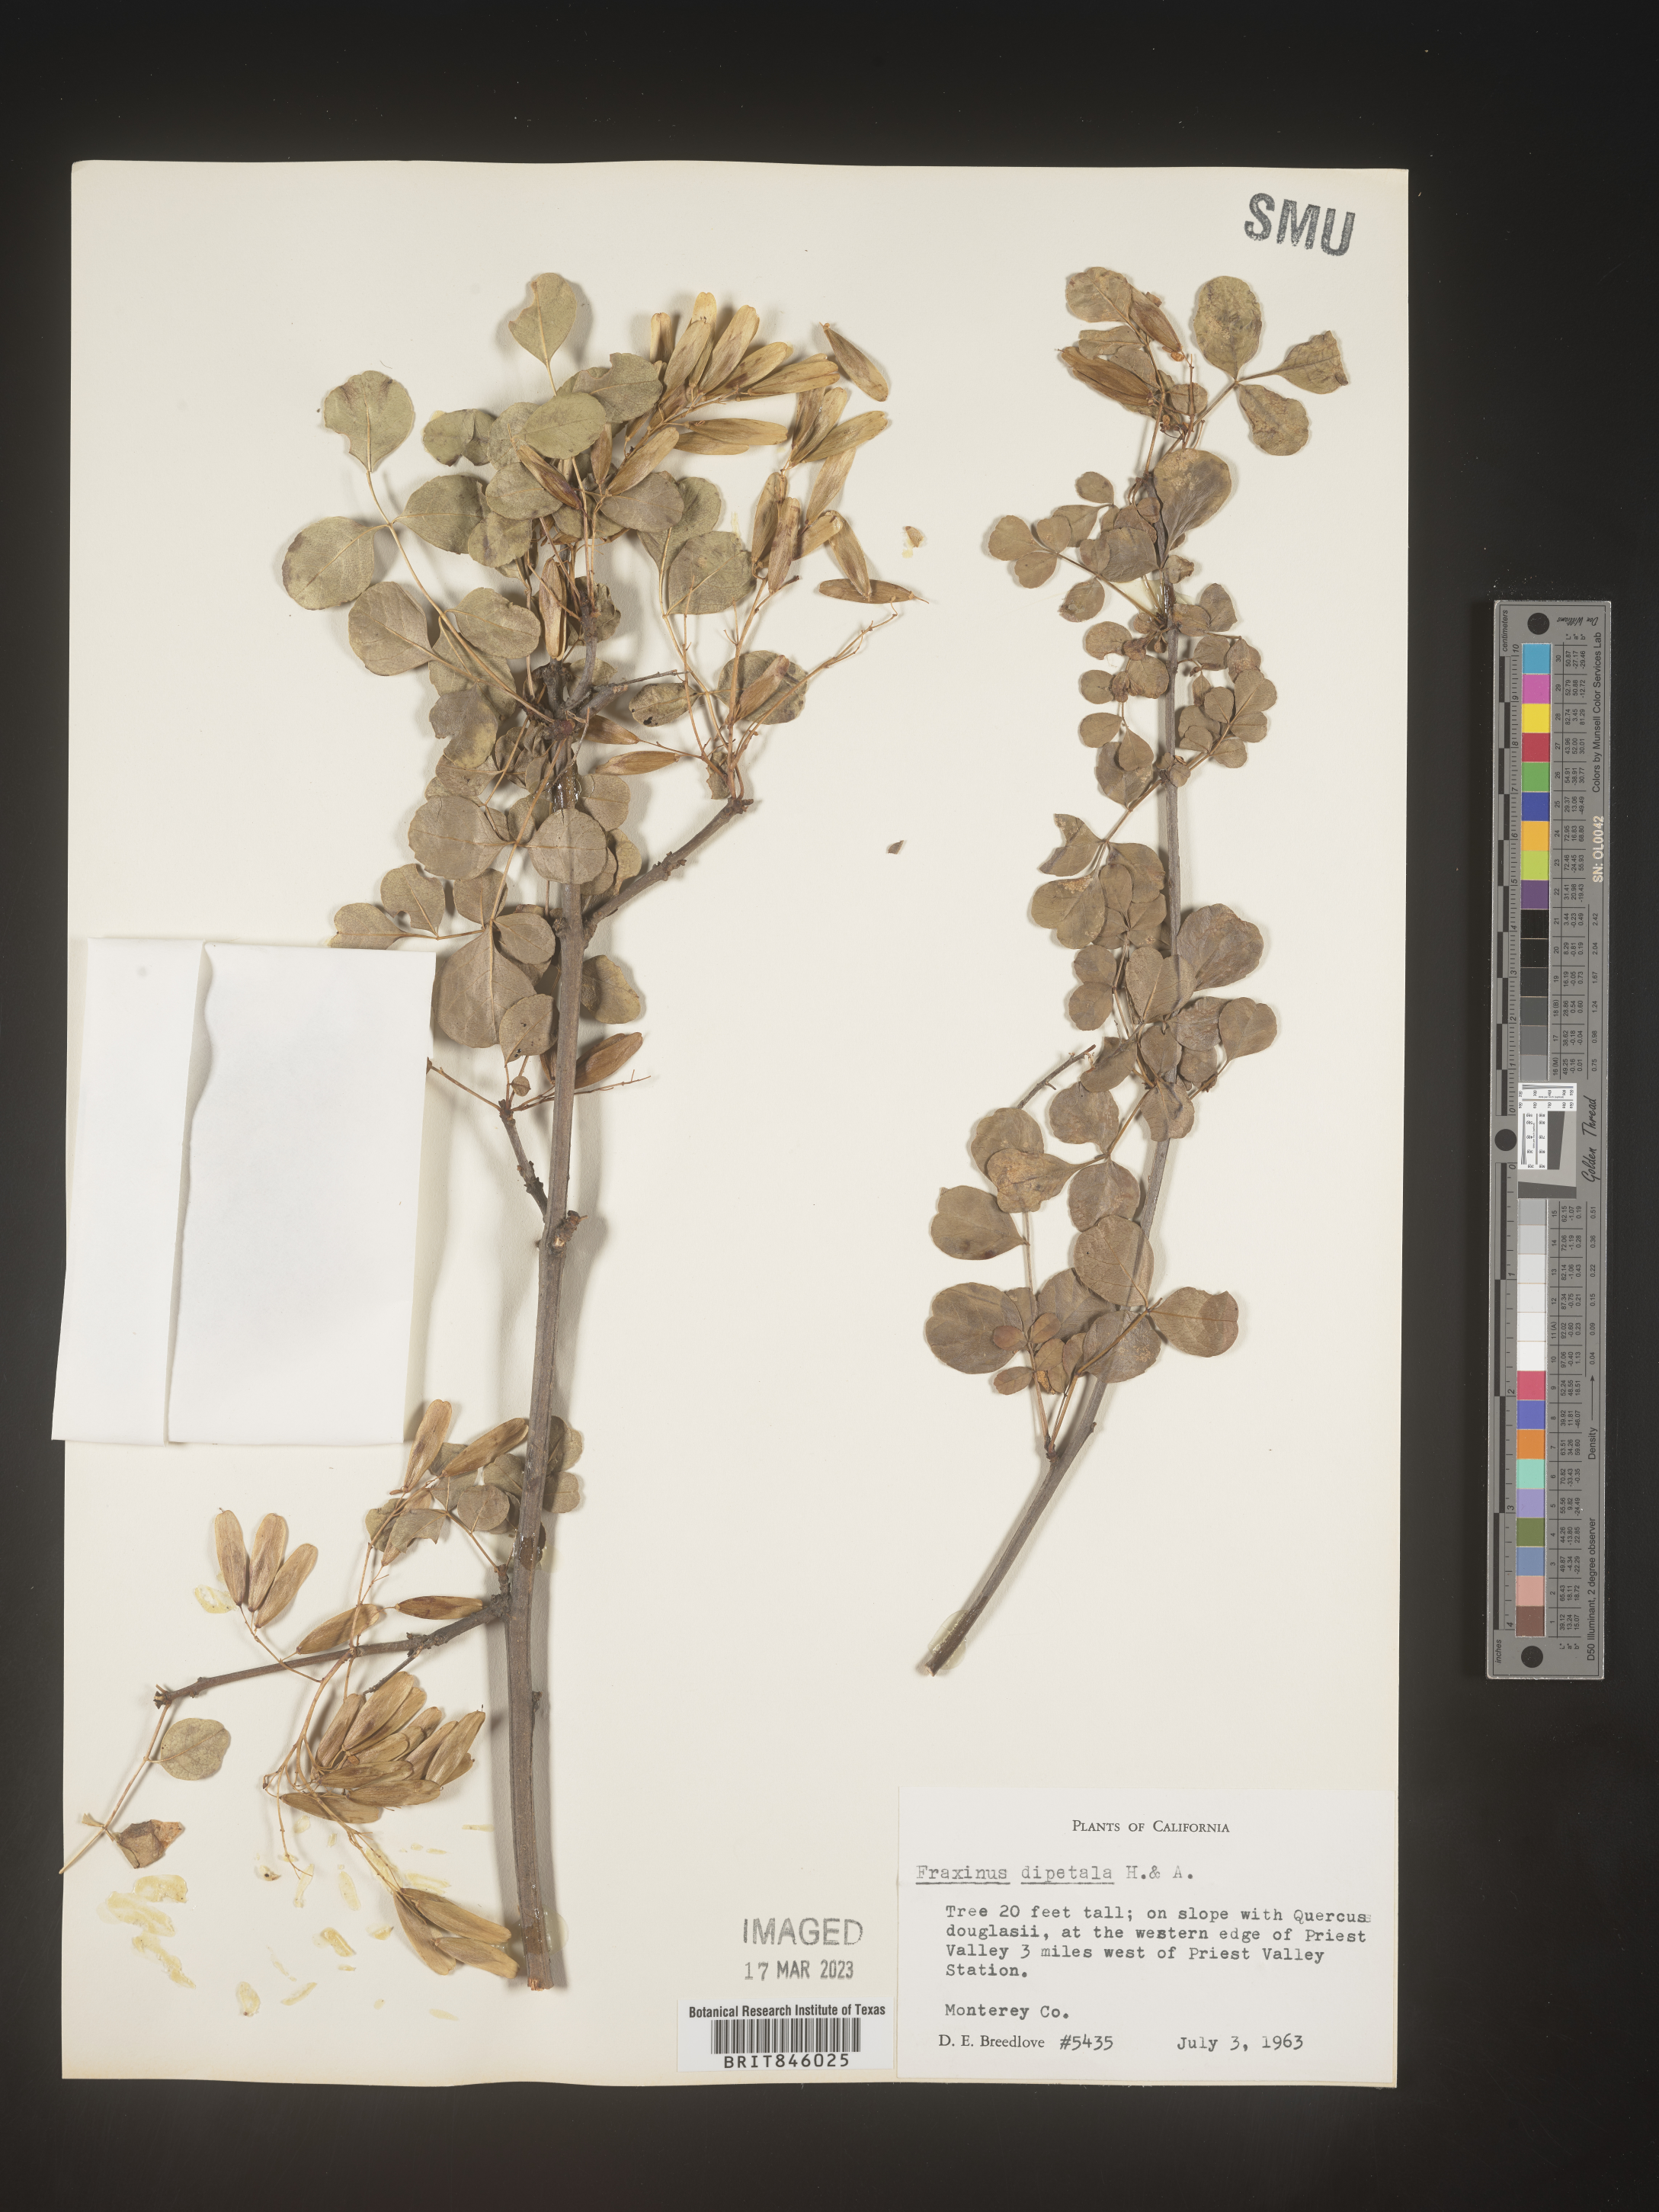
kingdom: Plantae
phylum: Tracheophyta
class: Magnoliopsida
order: Lamiales
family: Oleaceae
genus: Fraxinus
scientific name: Fraxinus dipetala
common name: California ash
